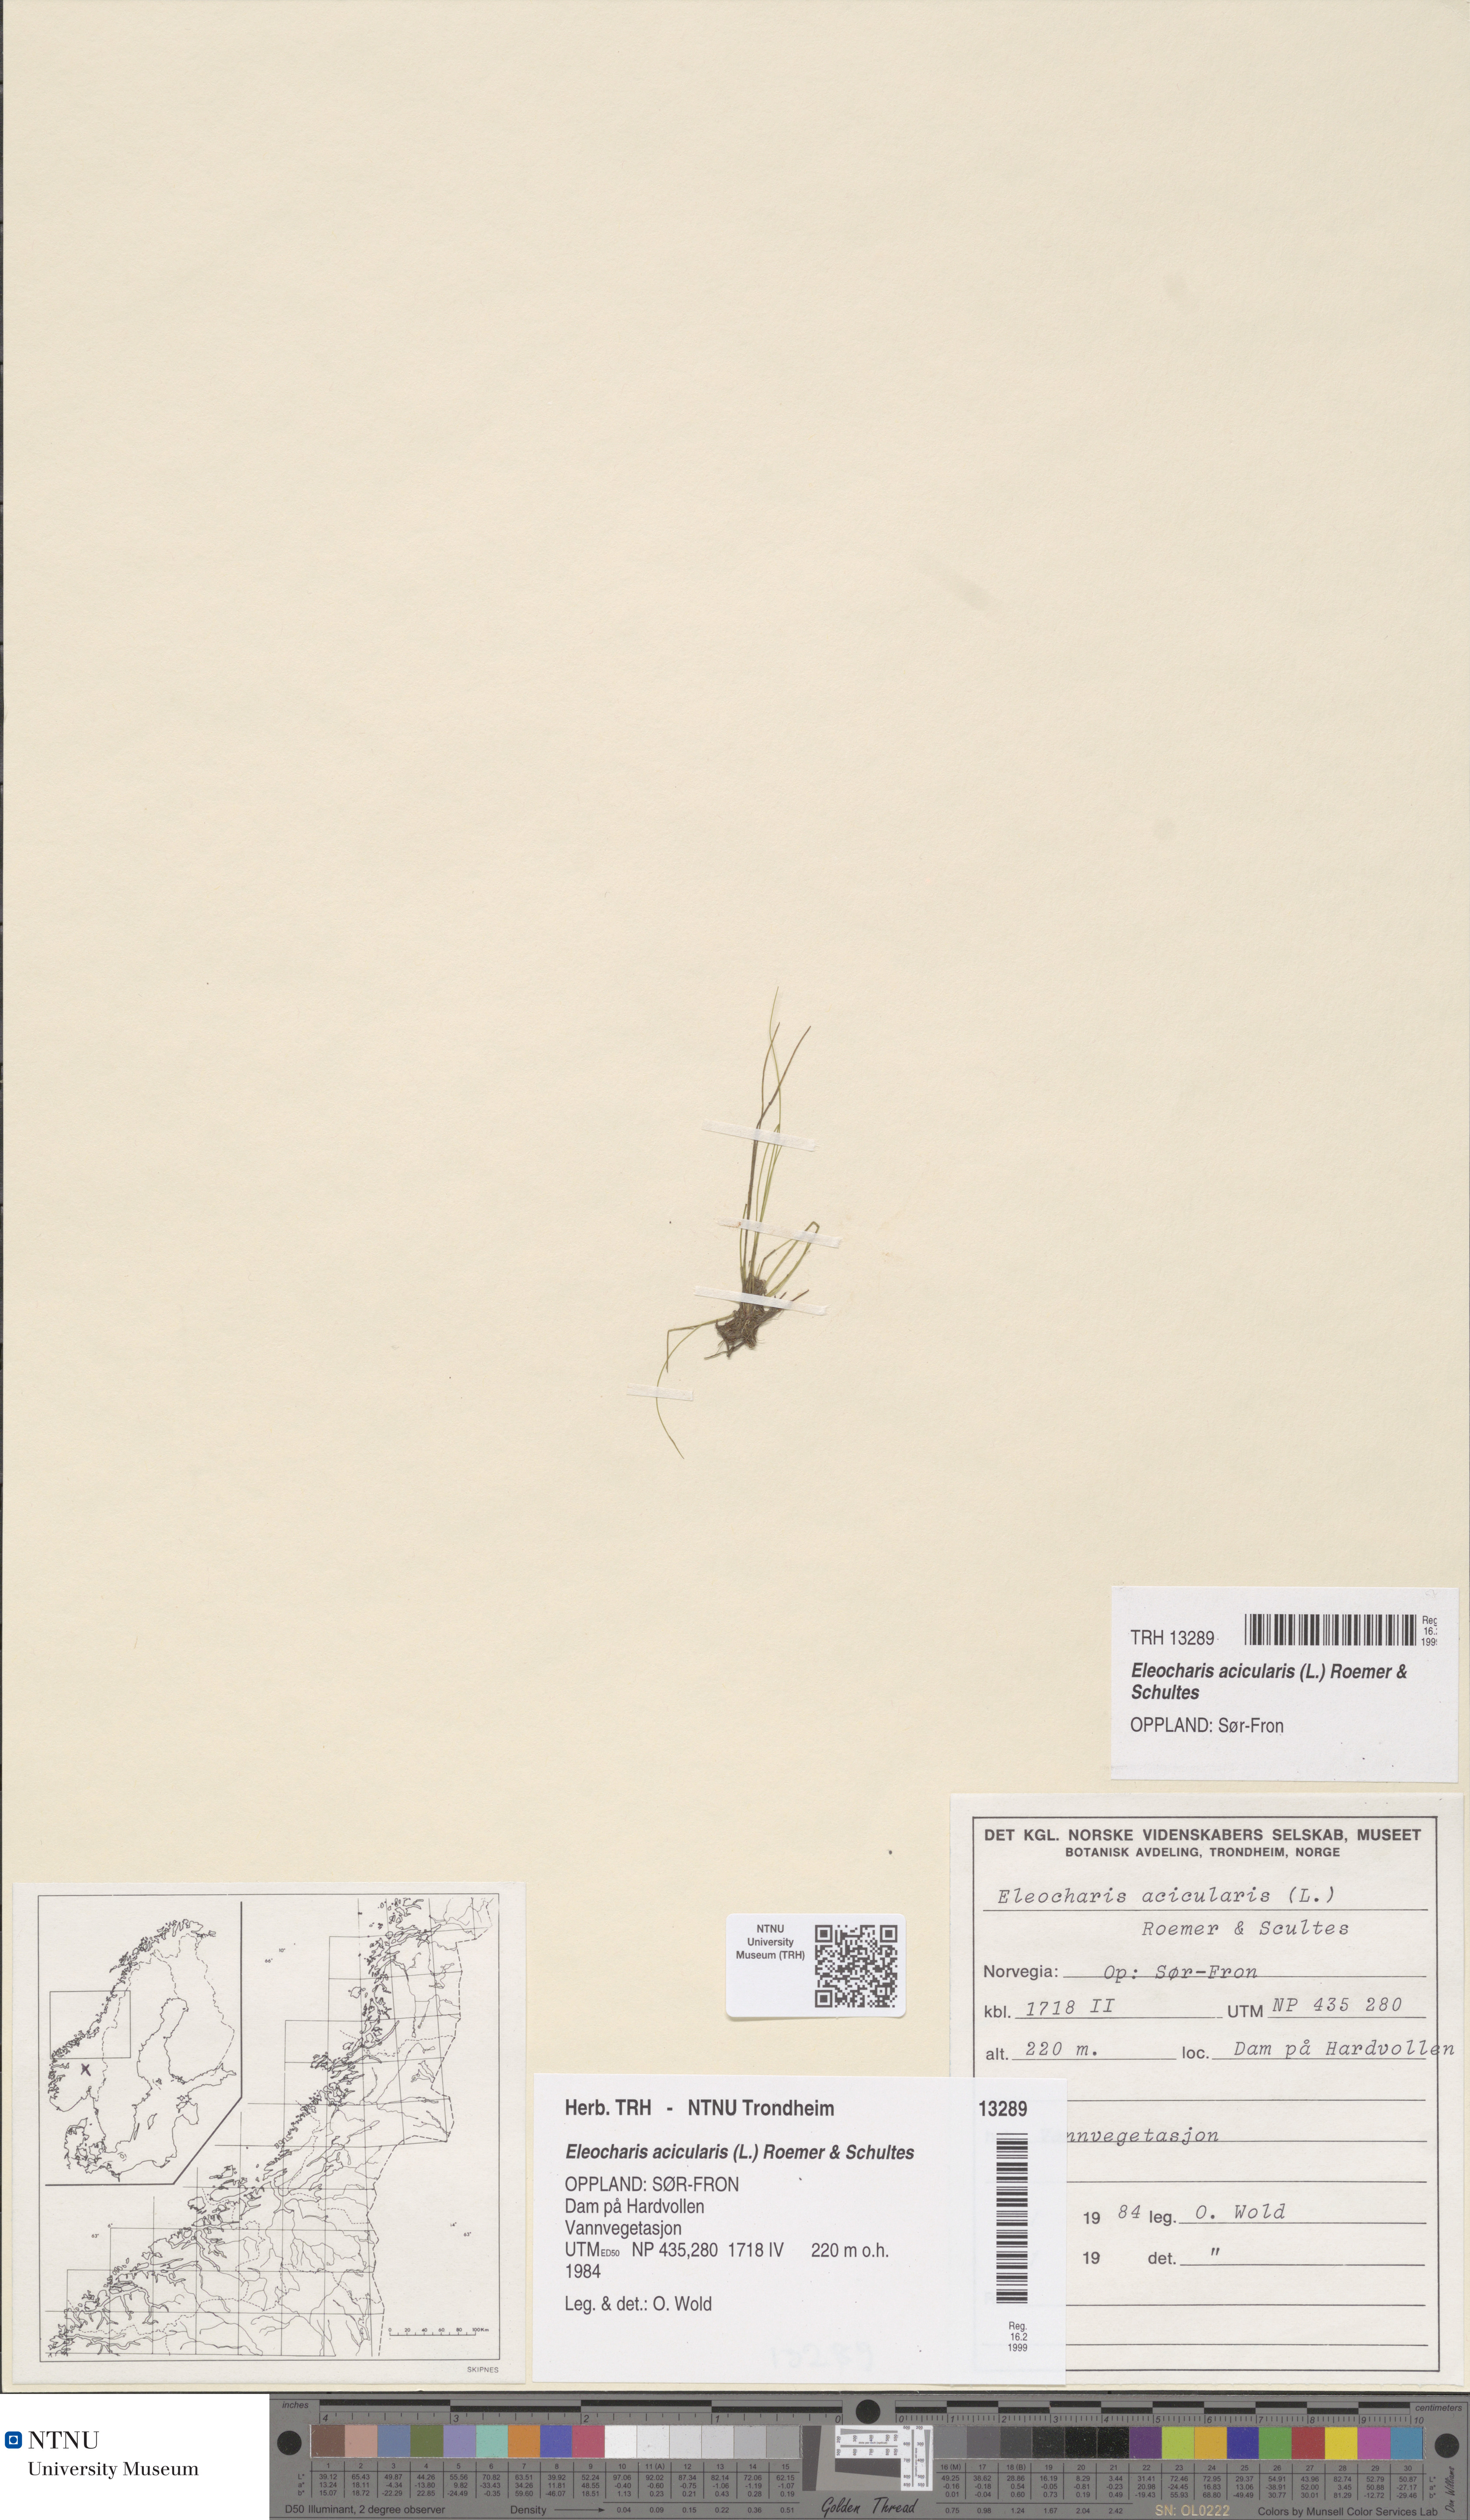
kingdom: Plantae
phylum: Tracheophyta
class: Liliopsida
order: Poales
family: Cyperaceae
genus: Eleocharis
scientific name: Eleocharis acicularis
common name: Needle spike-rush
